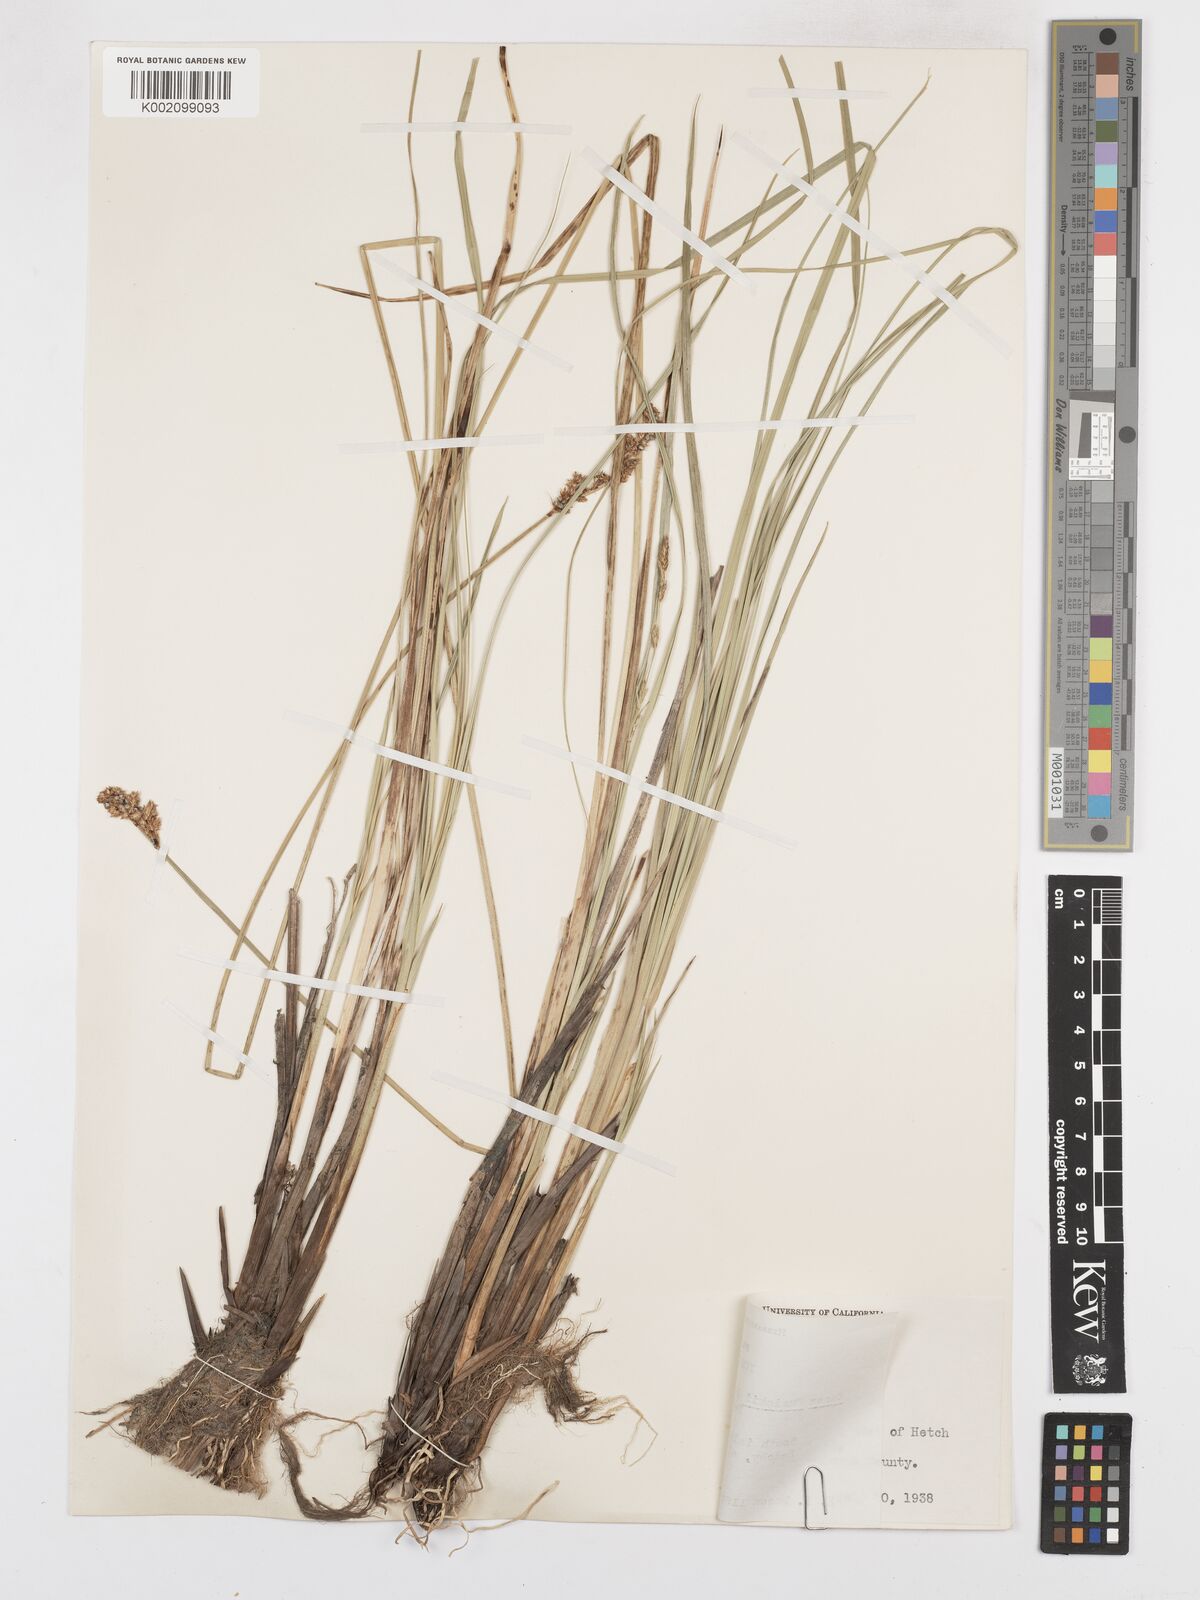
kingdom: Plantae
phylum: Tracheophyta
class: Liliopsida
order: Poales
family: Cyperaceae
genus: Carex
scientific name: Carex cusickii
